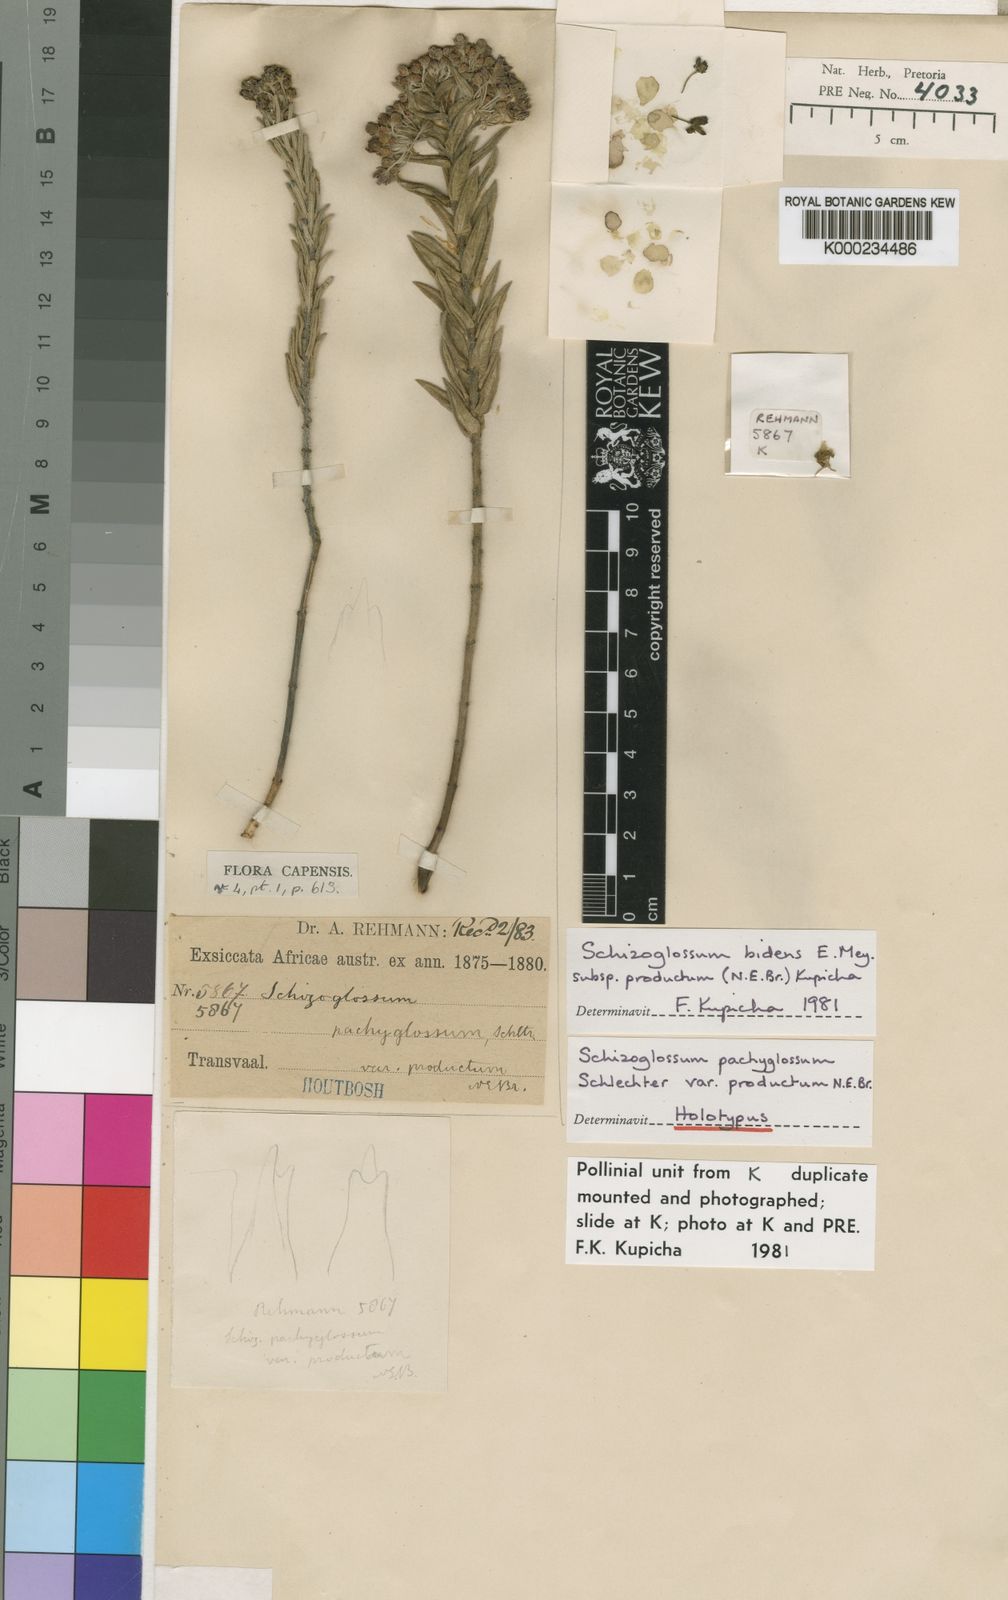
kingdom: Plantae
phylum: Tracheophyta
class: Magnoliopsida
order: Gentianales
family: Apocynaceae
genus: Schizoglossum
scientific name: Schizoglossum bidens
